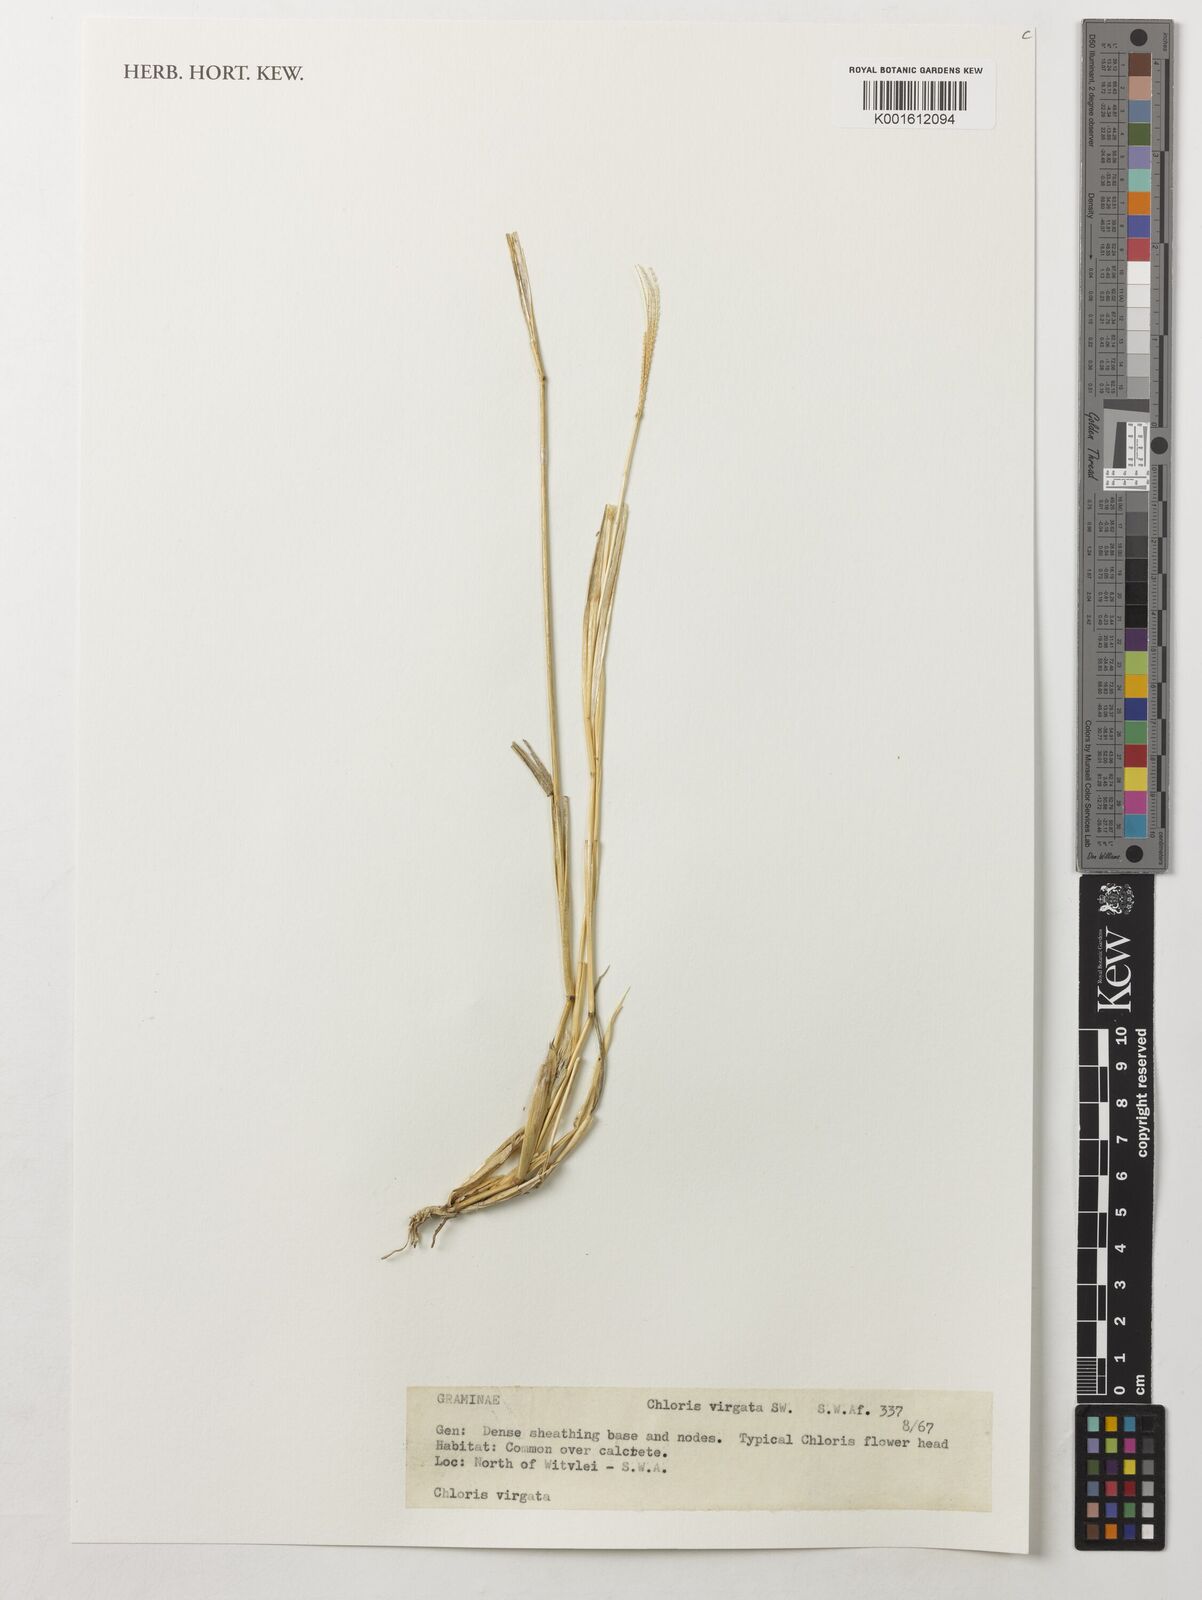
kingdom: Plantae
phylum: Tracheophyta
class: Liliopsida
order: Poales
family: Poaceae
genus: Chloris
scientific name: Chloris virgata
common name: Feathery rhodes-grass
